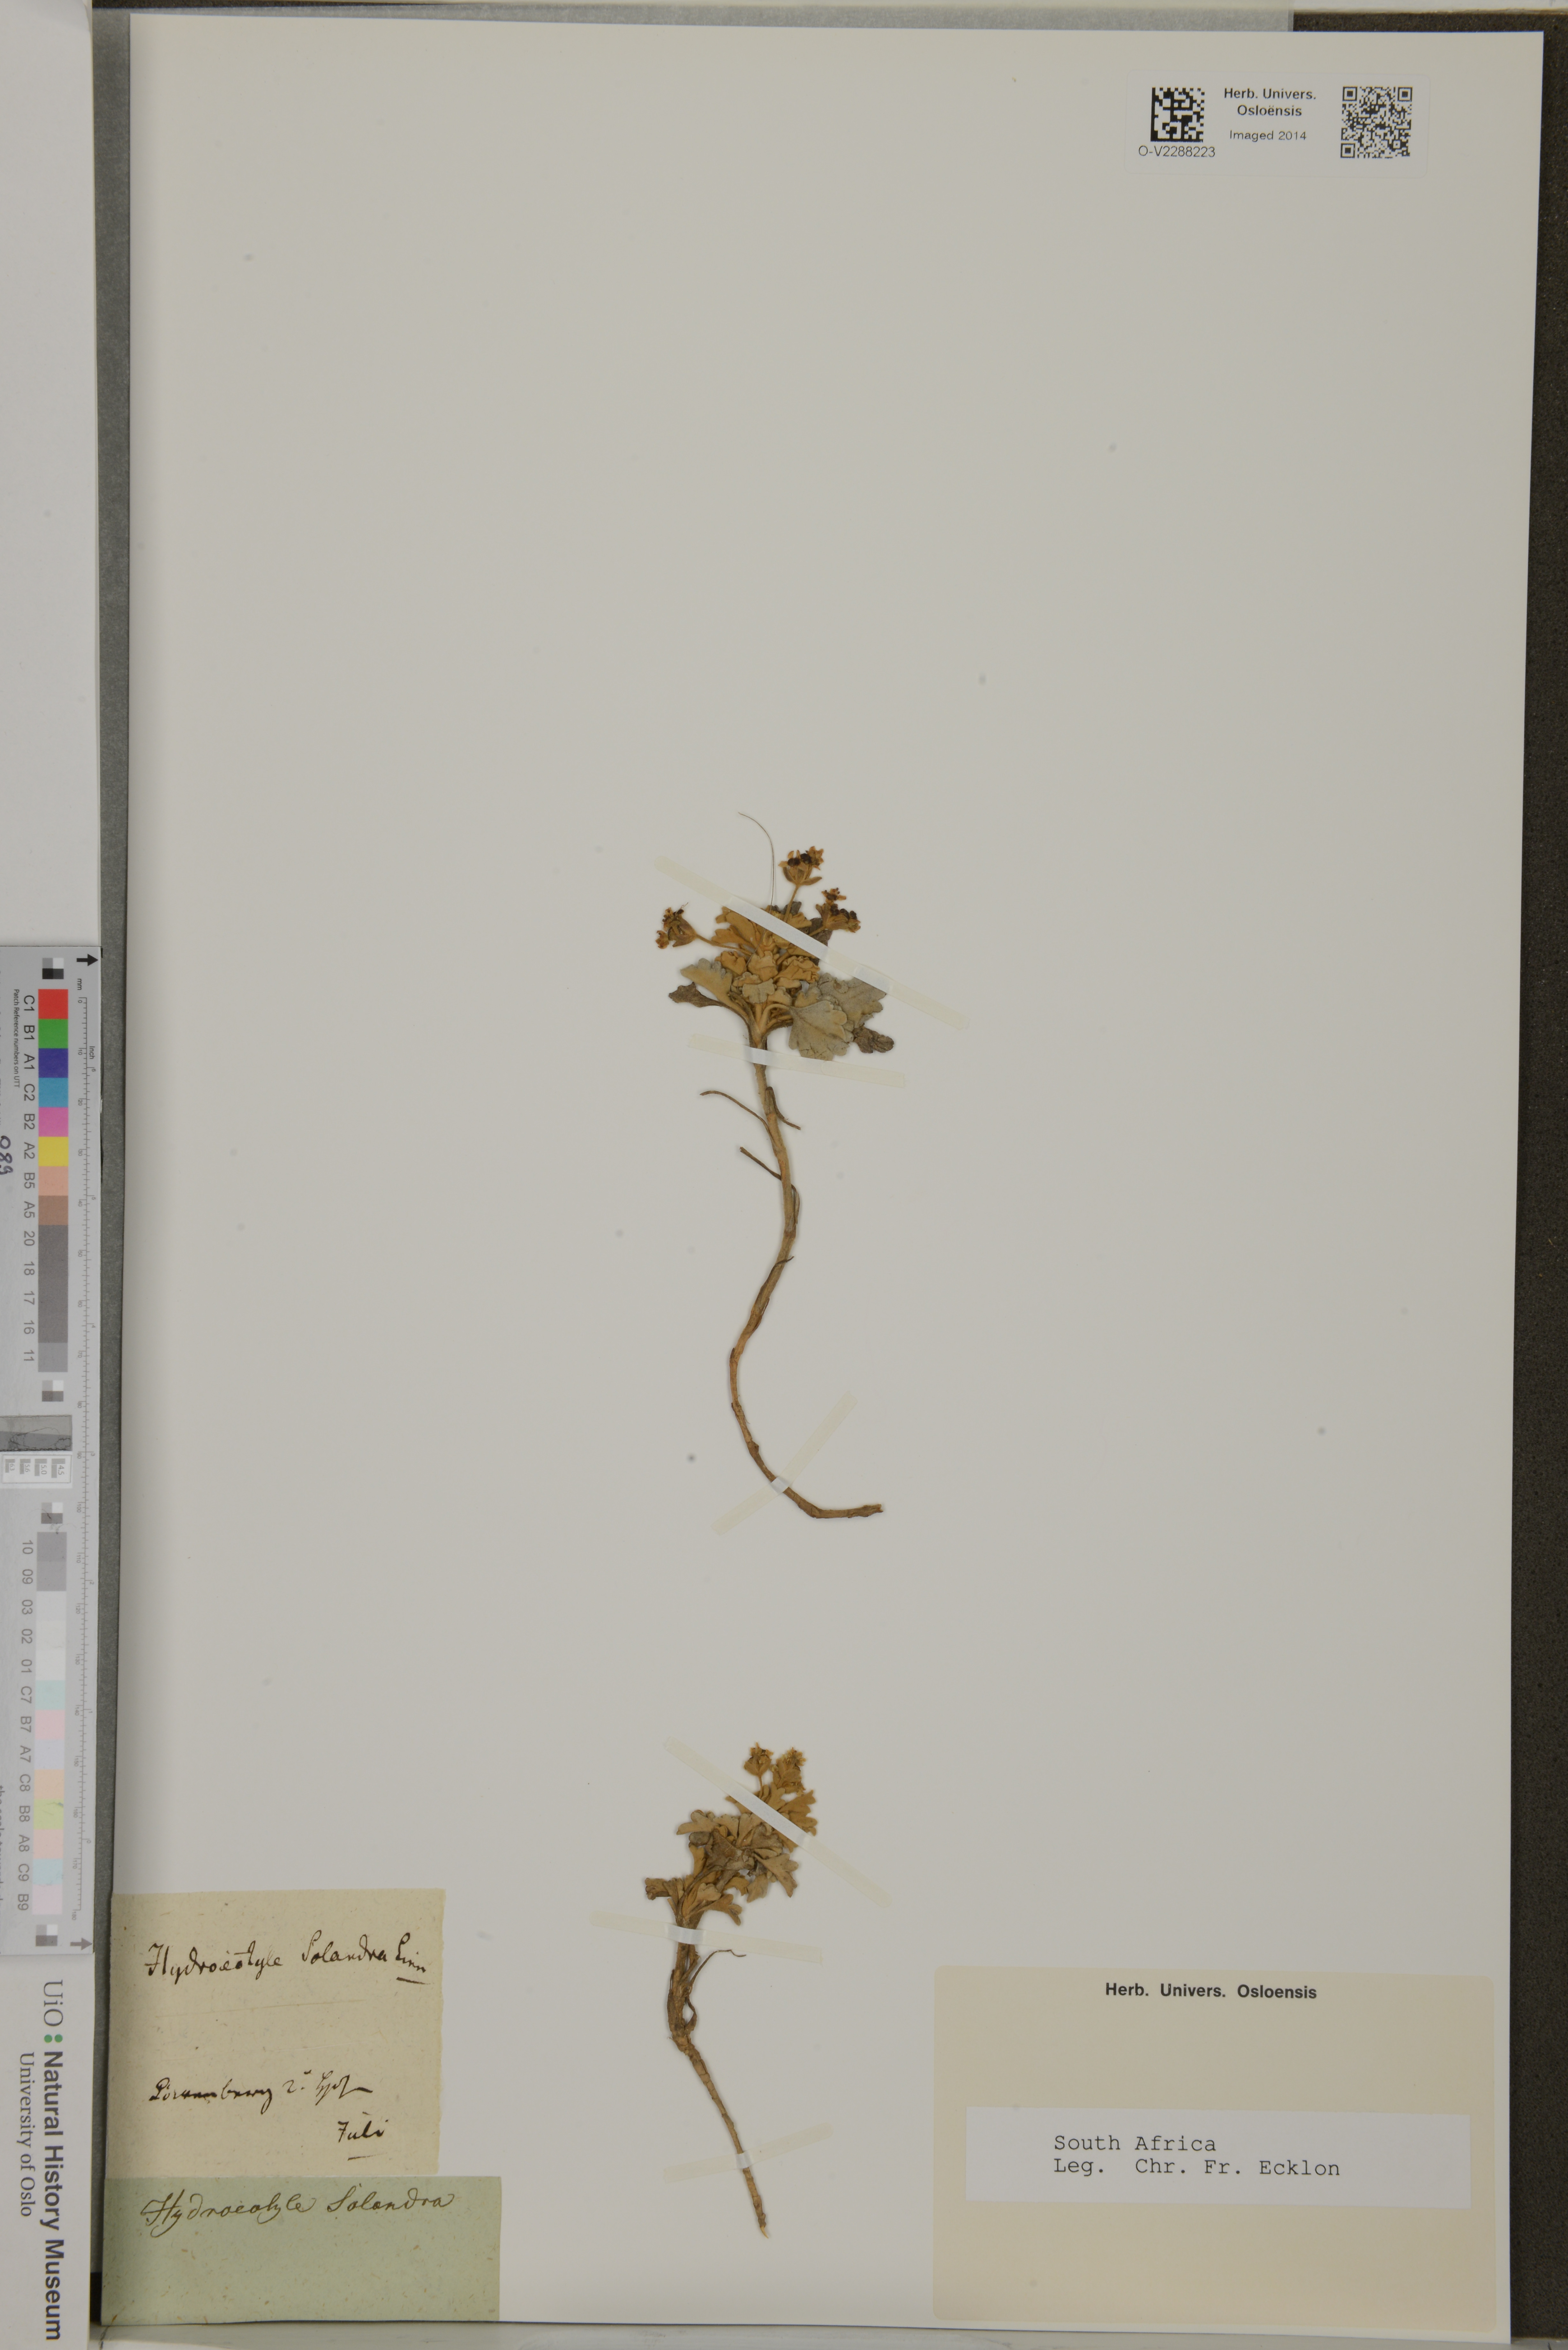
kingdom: Plantae
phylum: Tracheophyta
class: Magnoliopsida
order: Apiales
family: Apiaceae
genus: Centella
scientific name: Centella capensis
